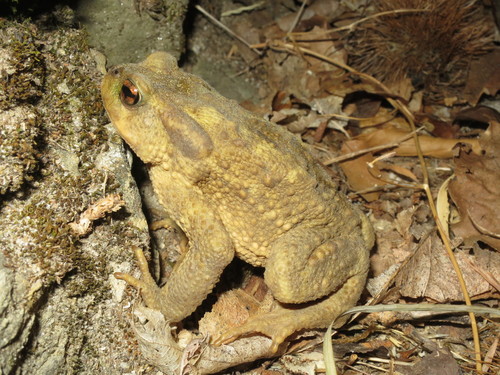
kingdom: Animalia
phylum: Chordata
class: Amphibia
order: Anura
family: Bufonidae
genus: Bufo
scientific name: Bufo spinosus
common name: Western common toad
